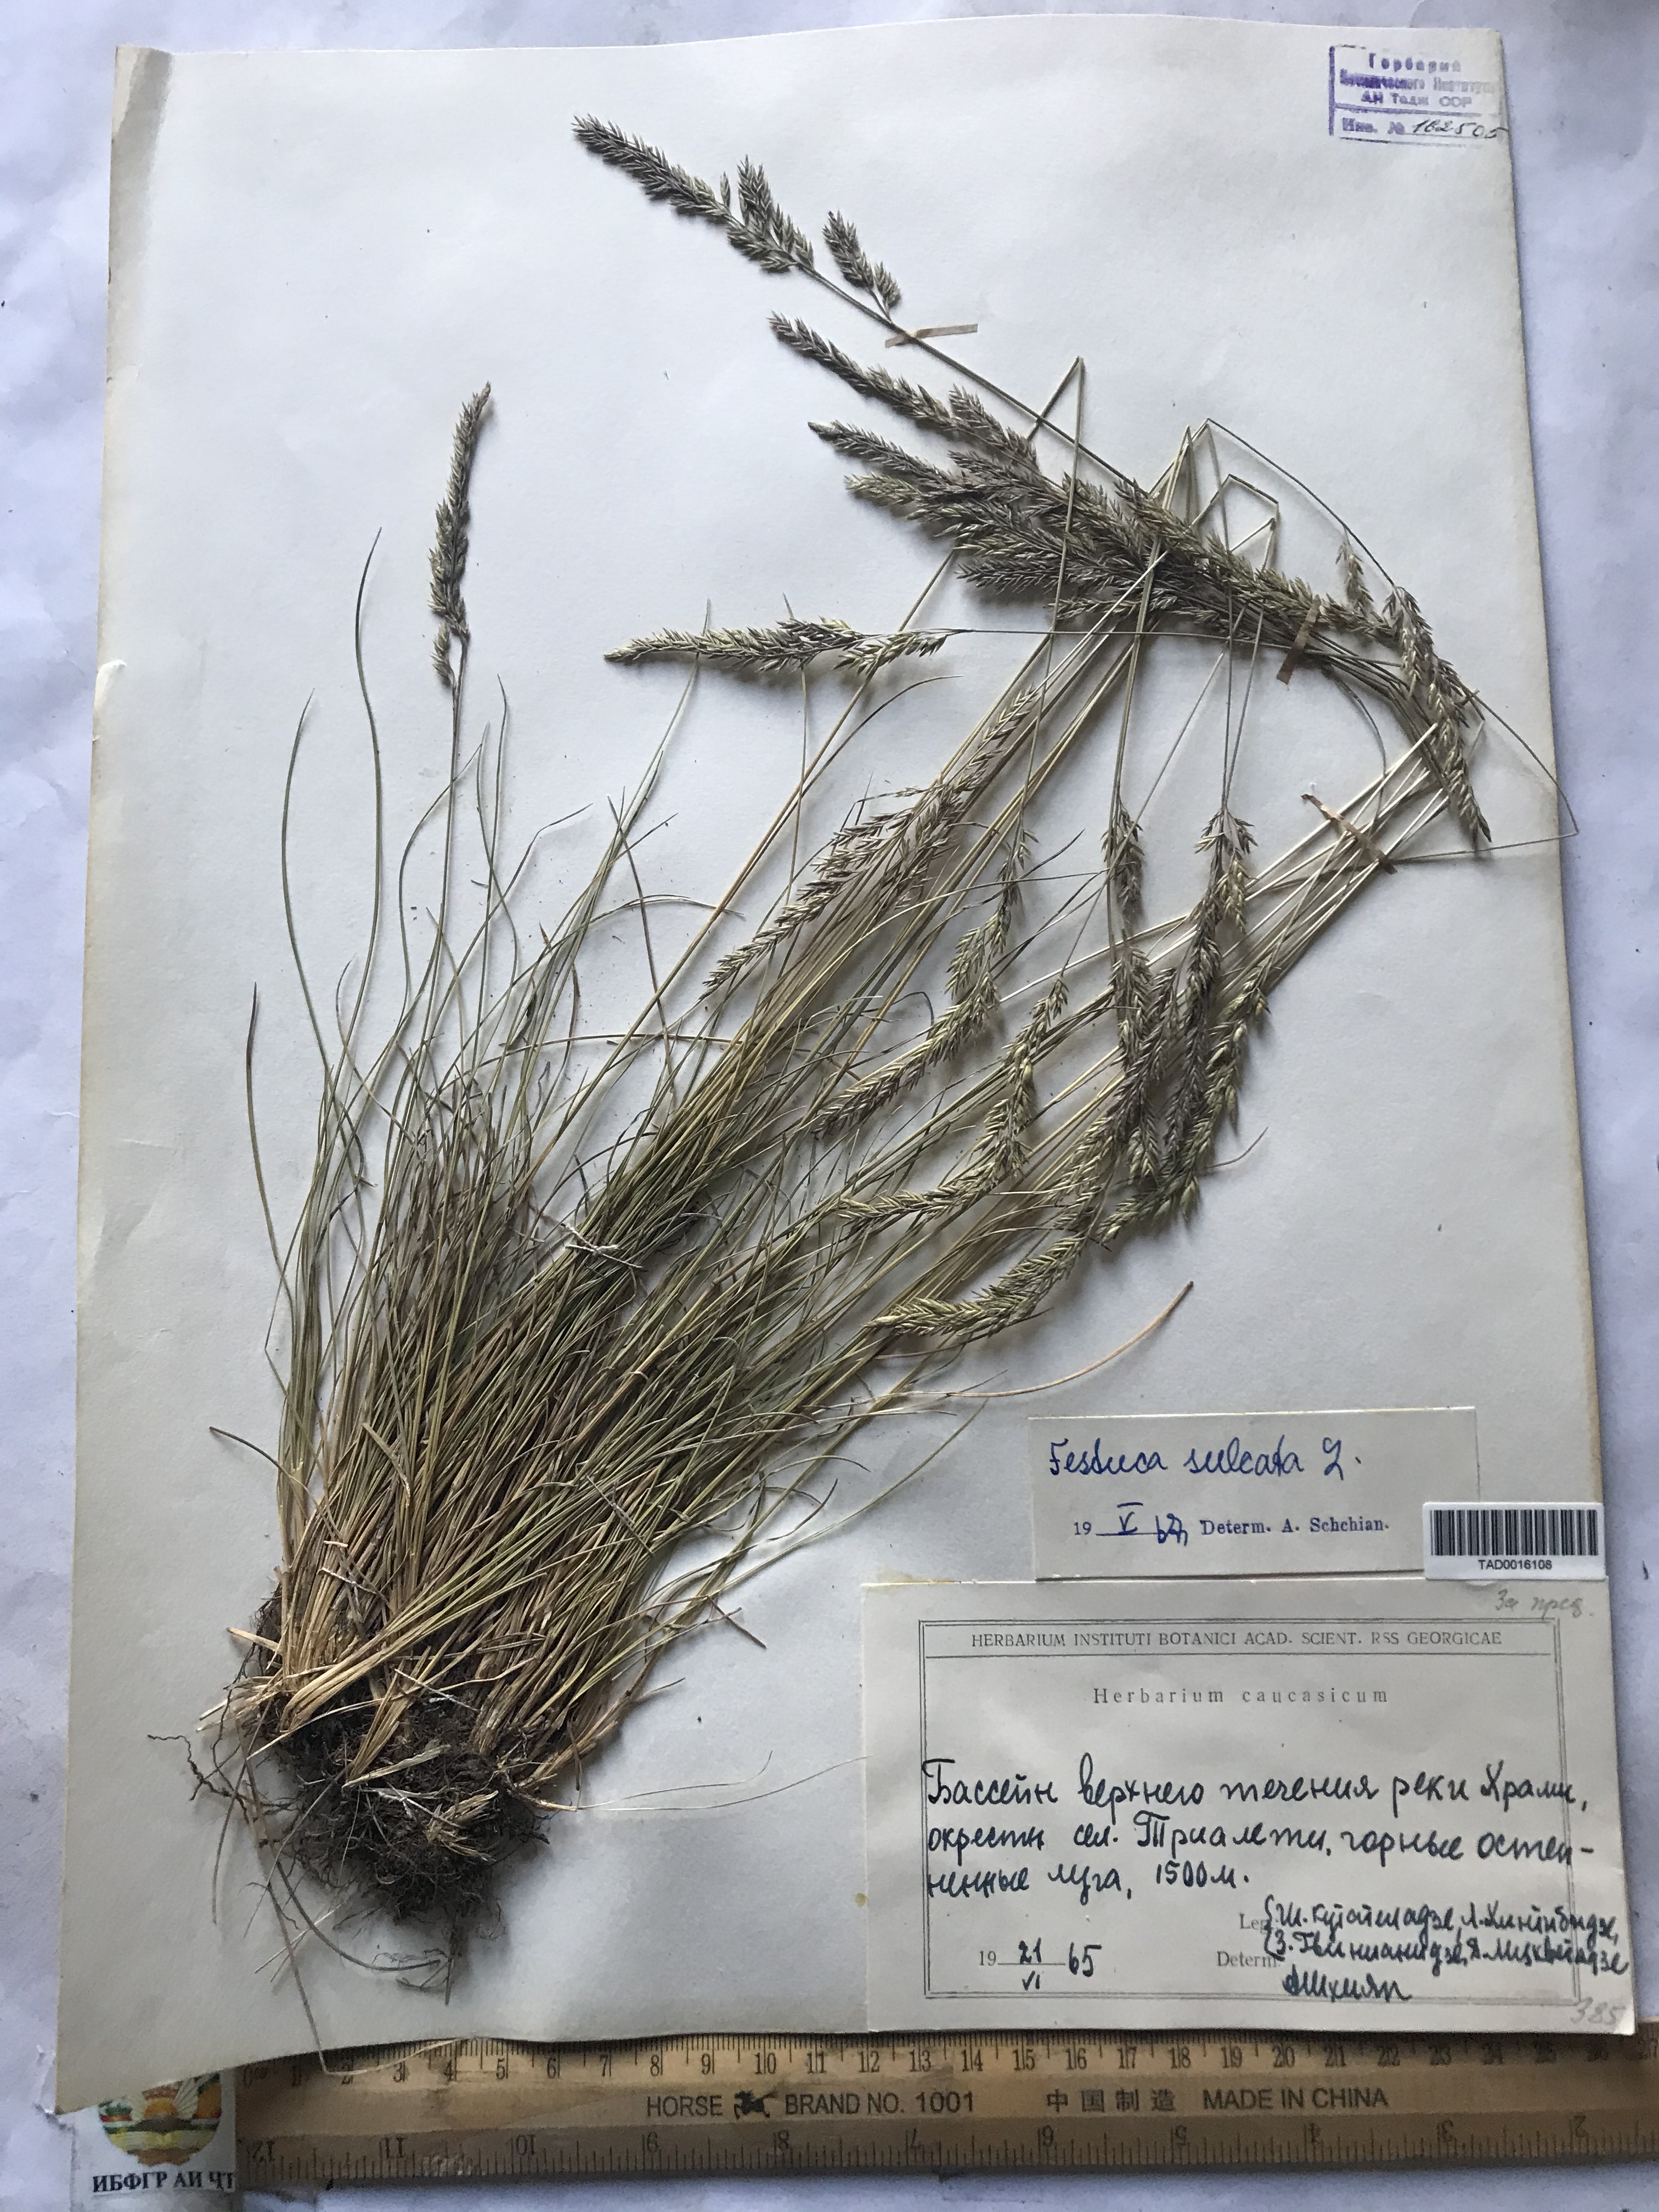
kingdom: Plantae
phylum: Tracheophyta
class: Liliopsida
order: Poales
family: Poaceae
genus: Festuca
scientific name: Festuca sulcata
